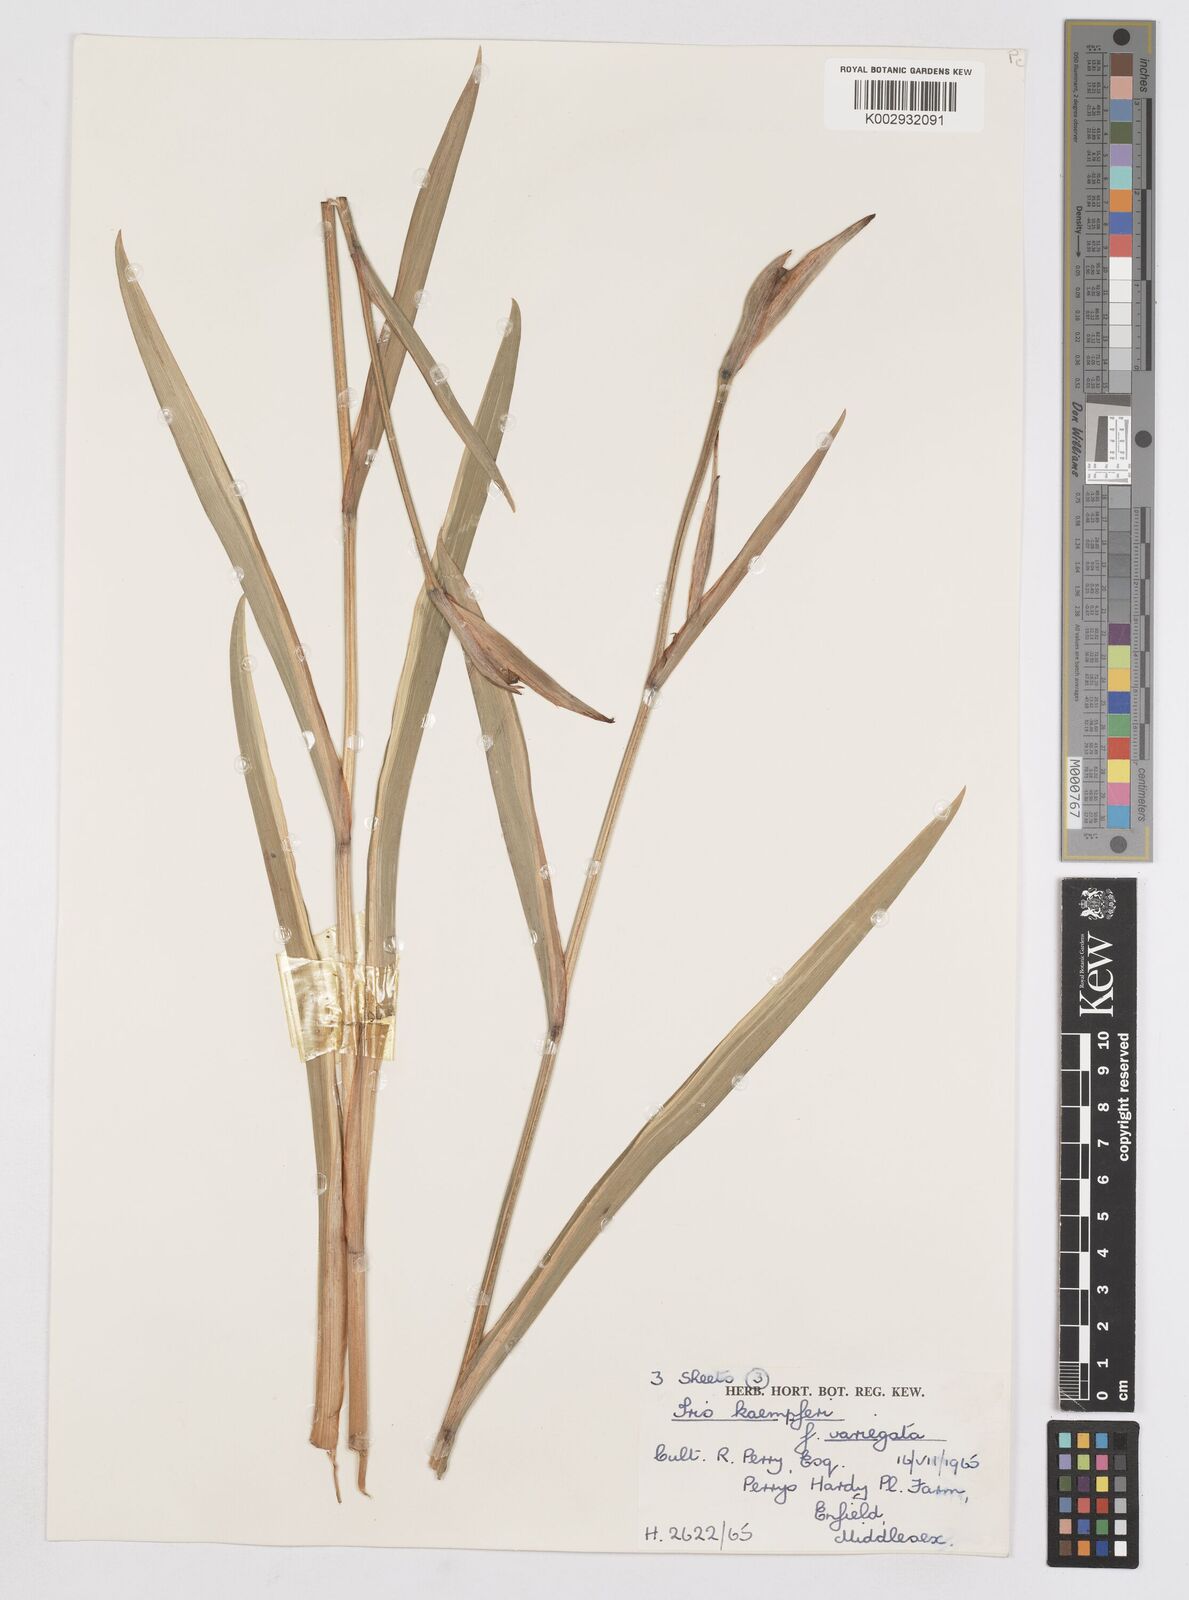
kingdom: Plantae
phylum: Tracheophyta
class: Liliopsida
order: Asparagales
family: Iridaceae
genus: Iris
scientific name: Iris ensata
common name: Beaked iris
